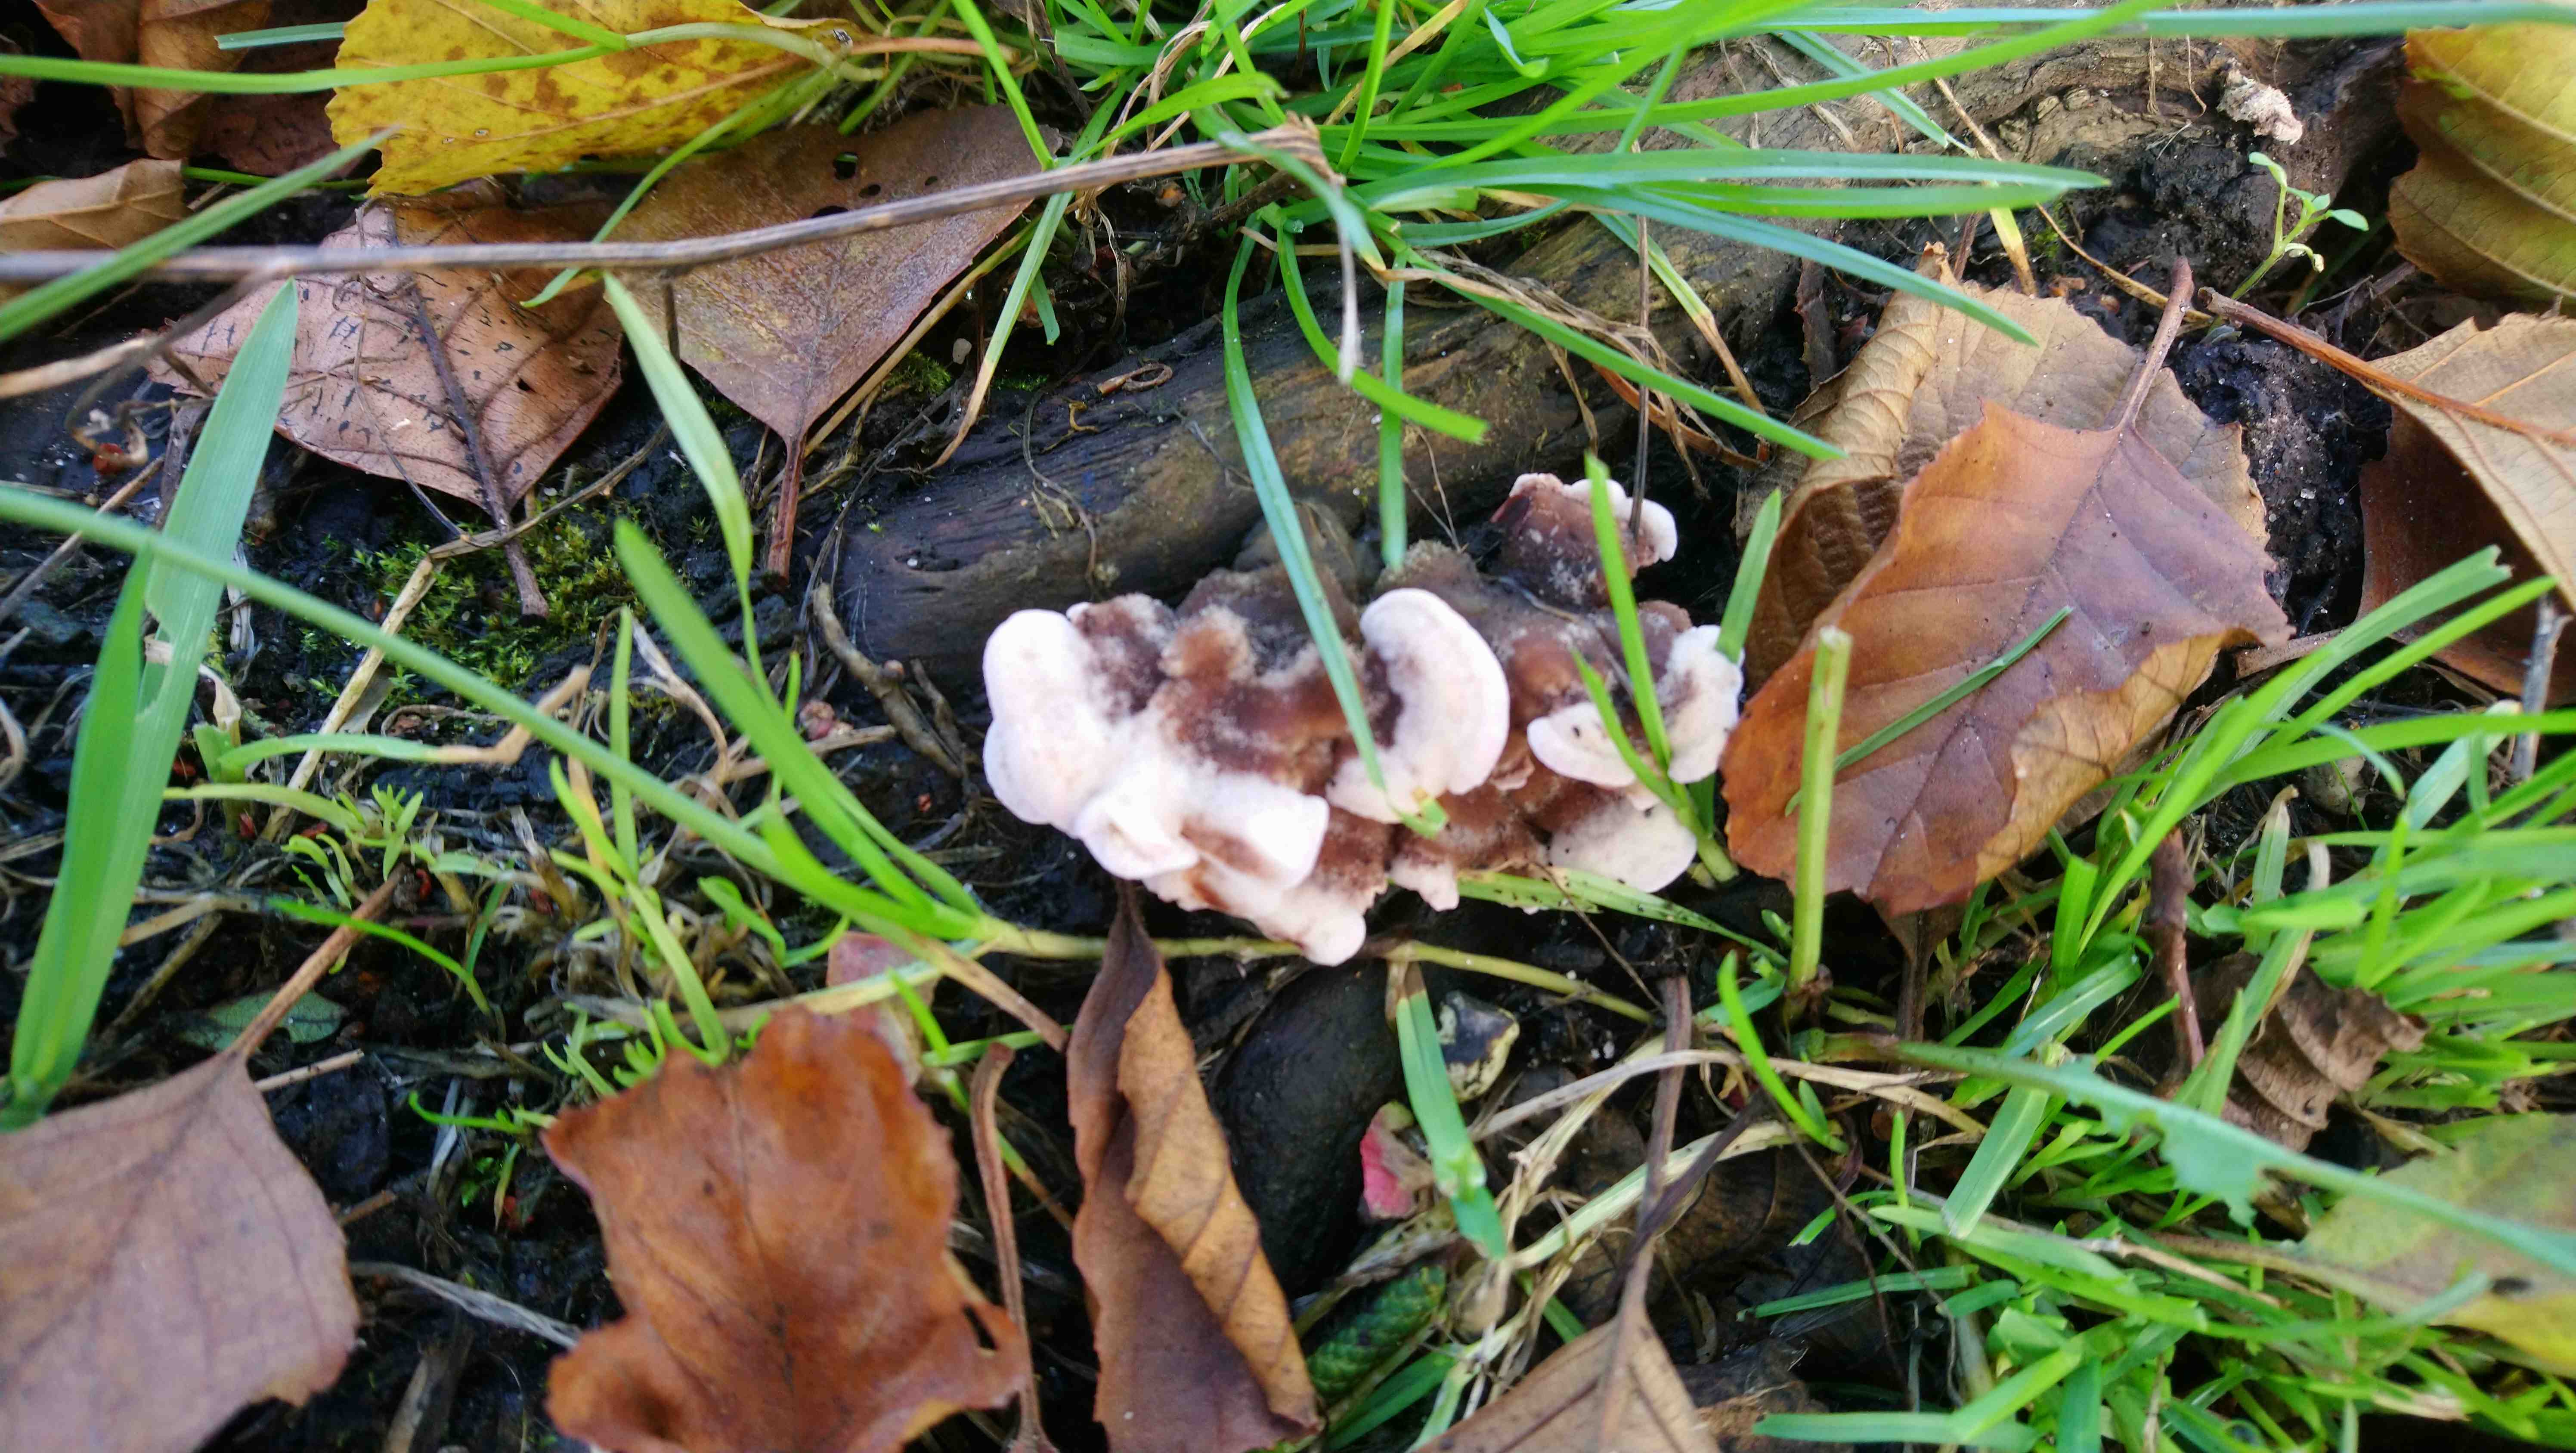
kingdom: Fungi
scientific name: Fungi
